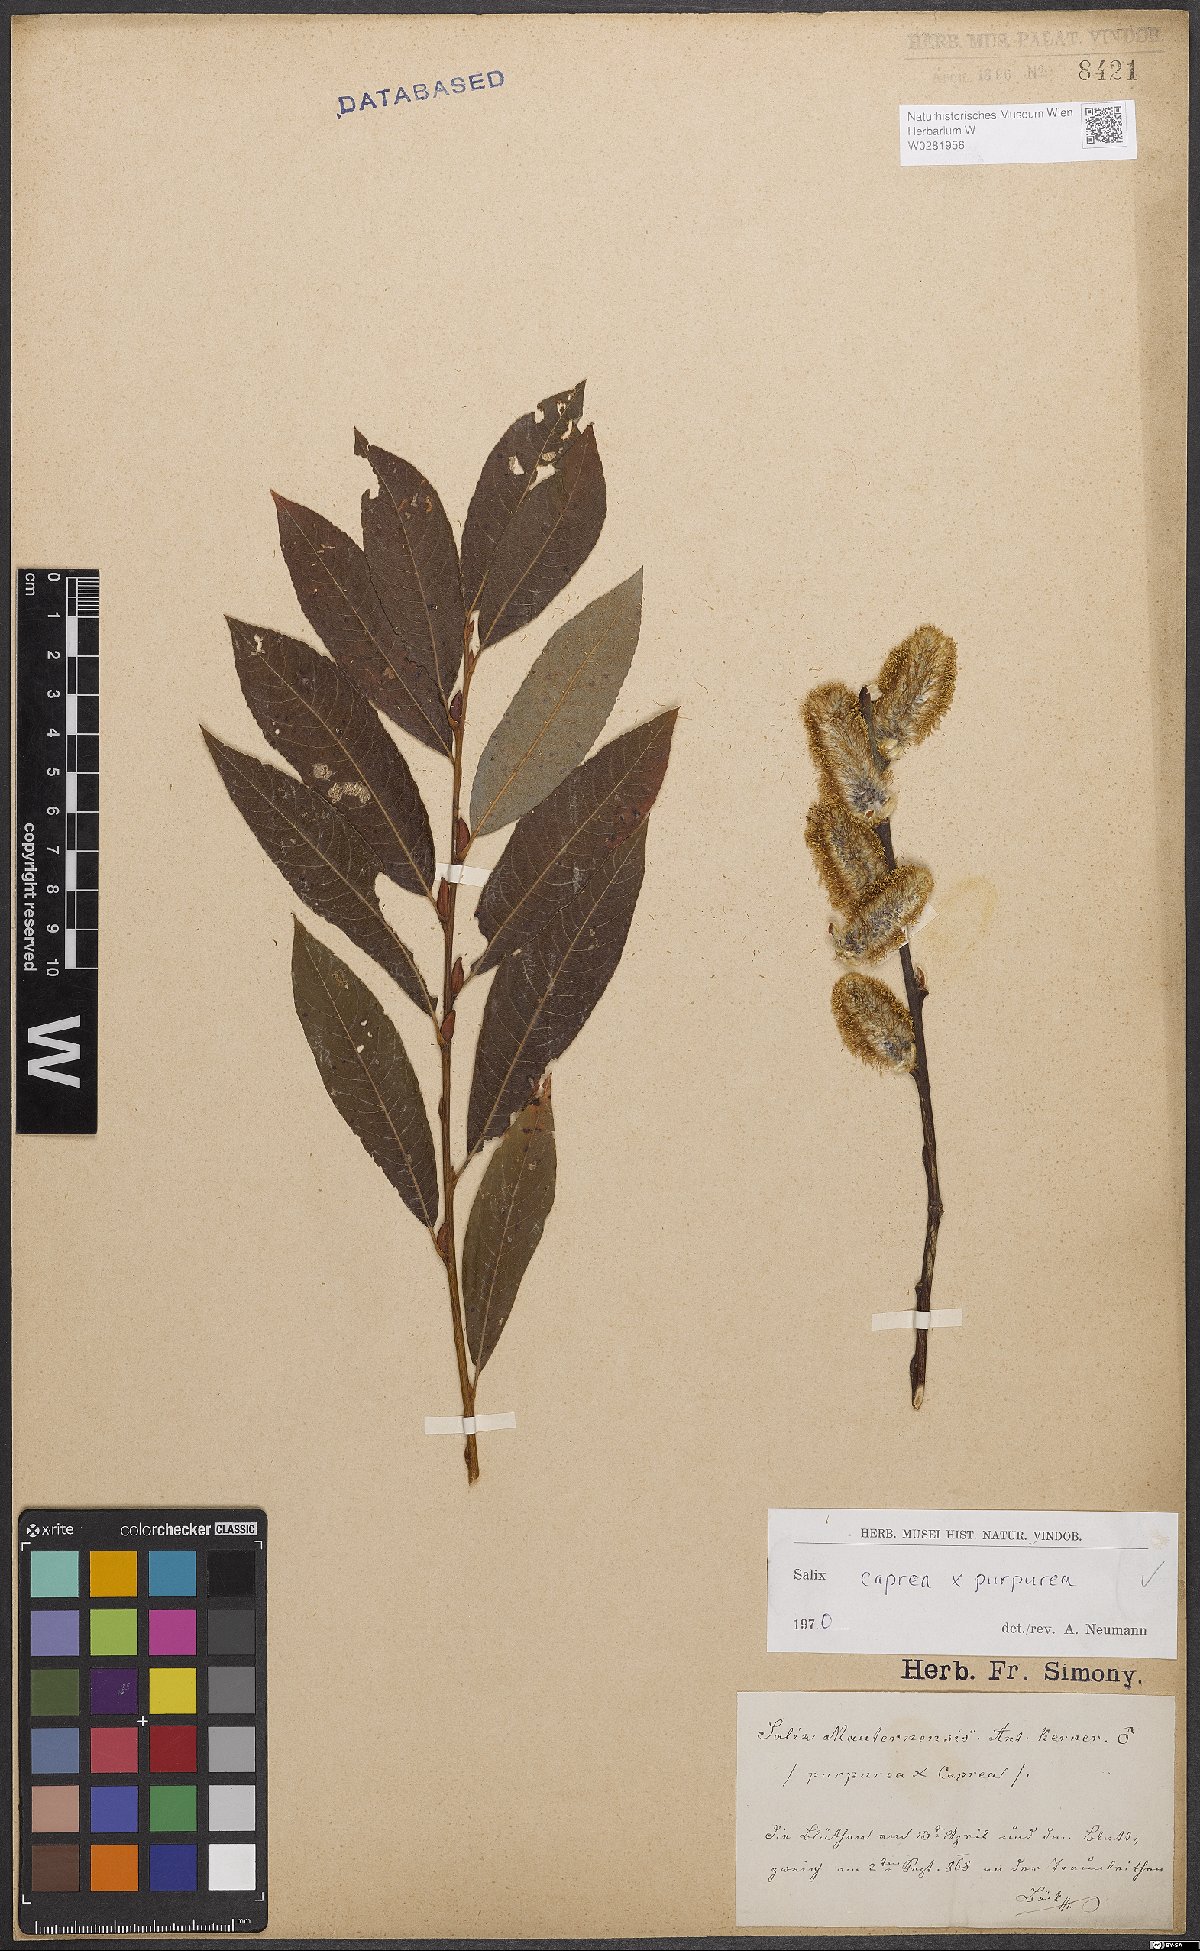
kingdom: Plantae
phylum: Tracheophyta
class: Magnoliopsida
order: Malpighiales
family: Salicaceae
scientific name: Salicaceae
